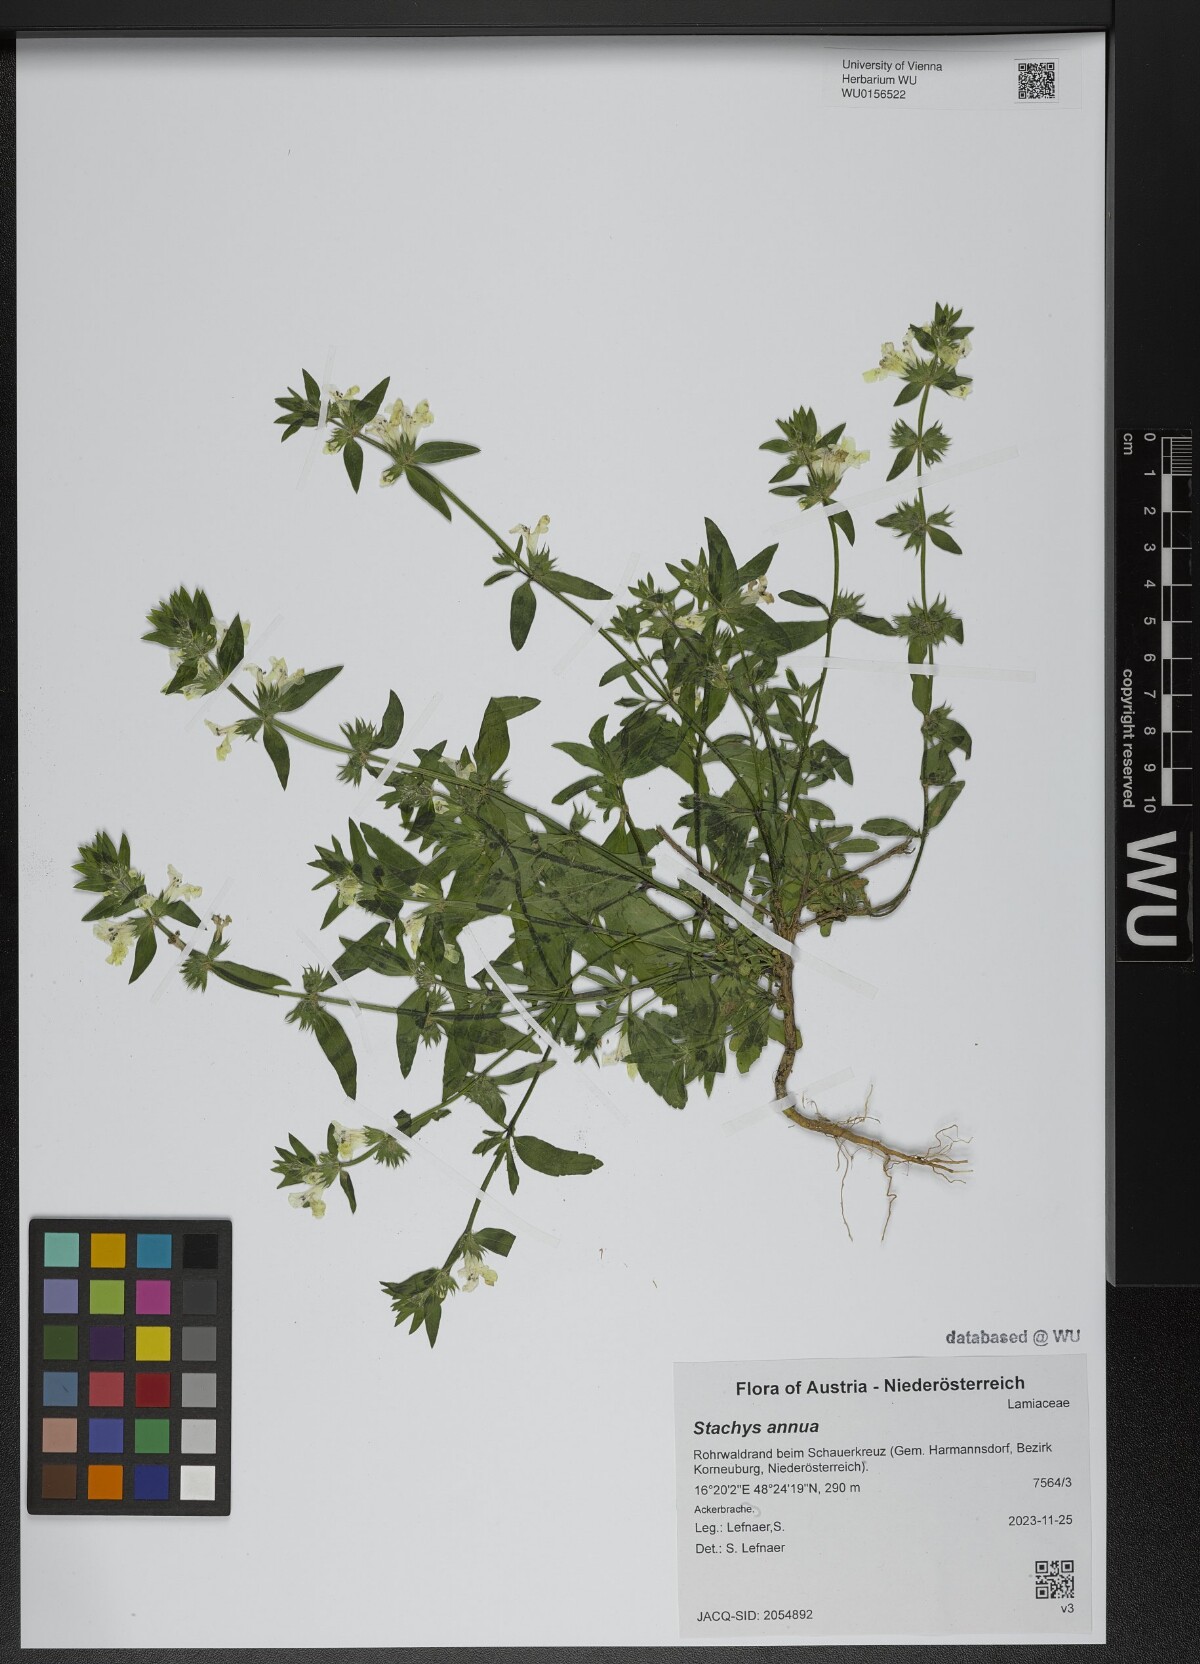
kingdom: Plantae
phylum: Tracheophyta
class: Magnoliopsida
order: Lamiales
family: Lamiaceae
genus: Stachys
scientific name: Stachys annua
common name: Annual yellow-woundwort
